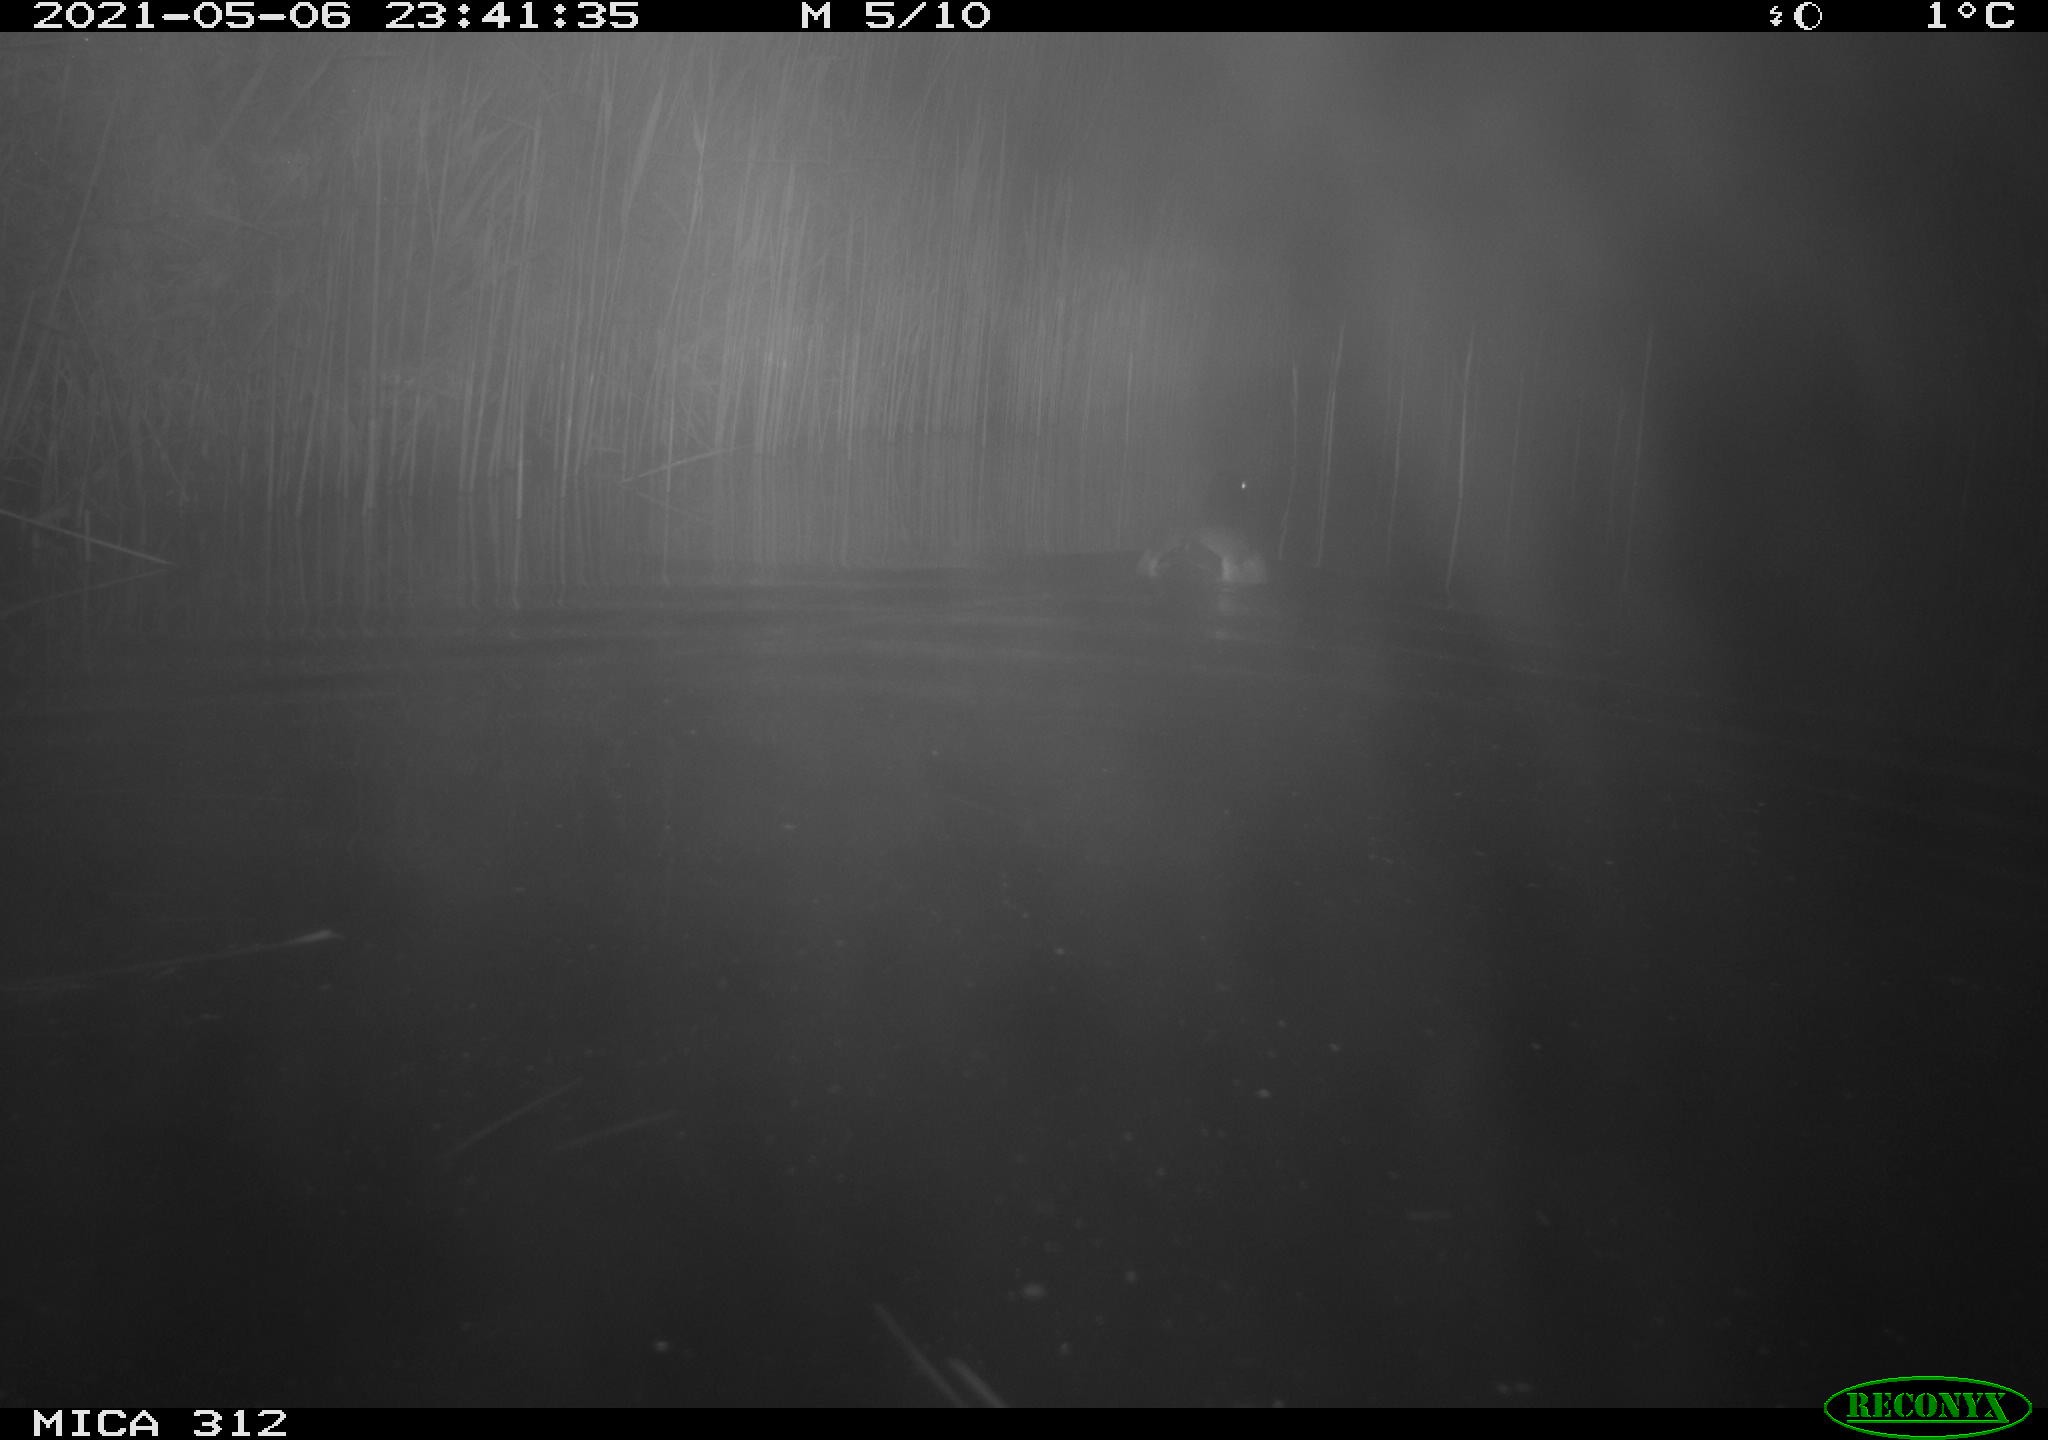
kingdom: Animalia
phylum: Chordata
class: Aves
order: Anseriformes
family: Anatidae
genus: Anas
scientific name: Anas platyrhynchos
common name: Mallard
